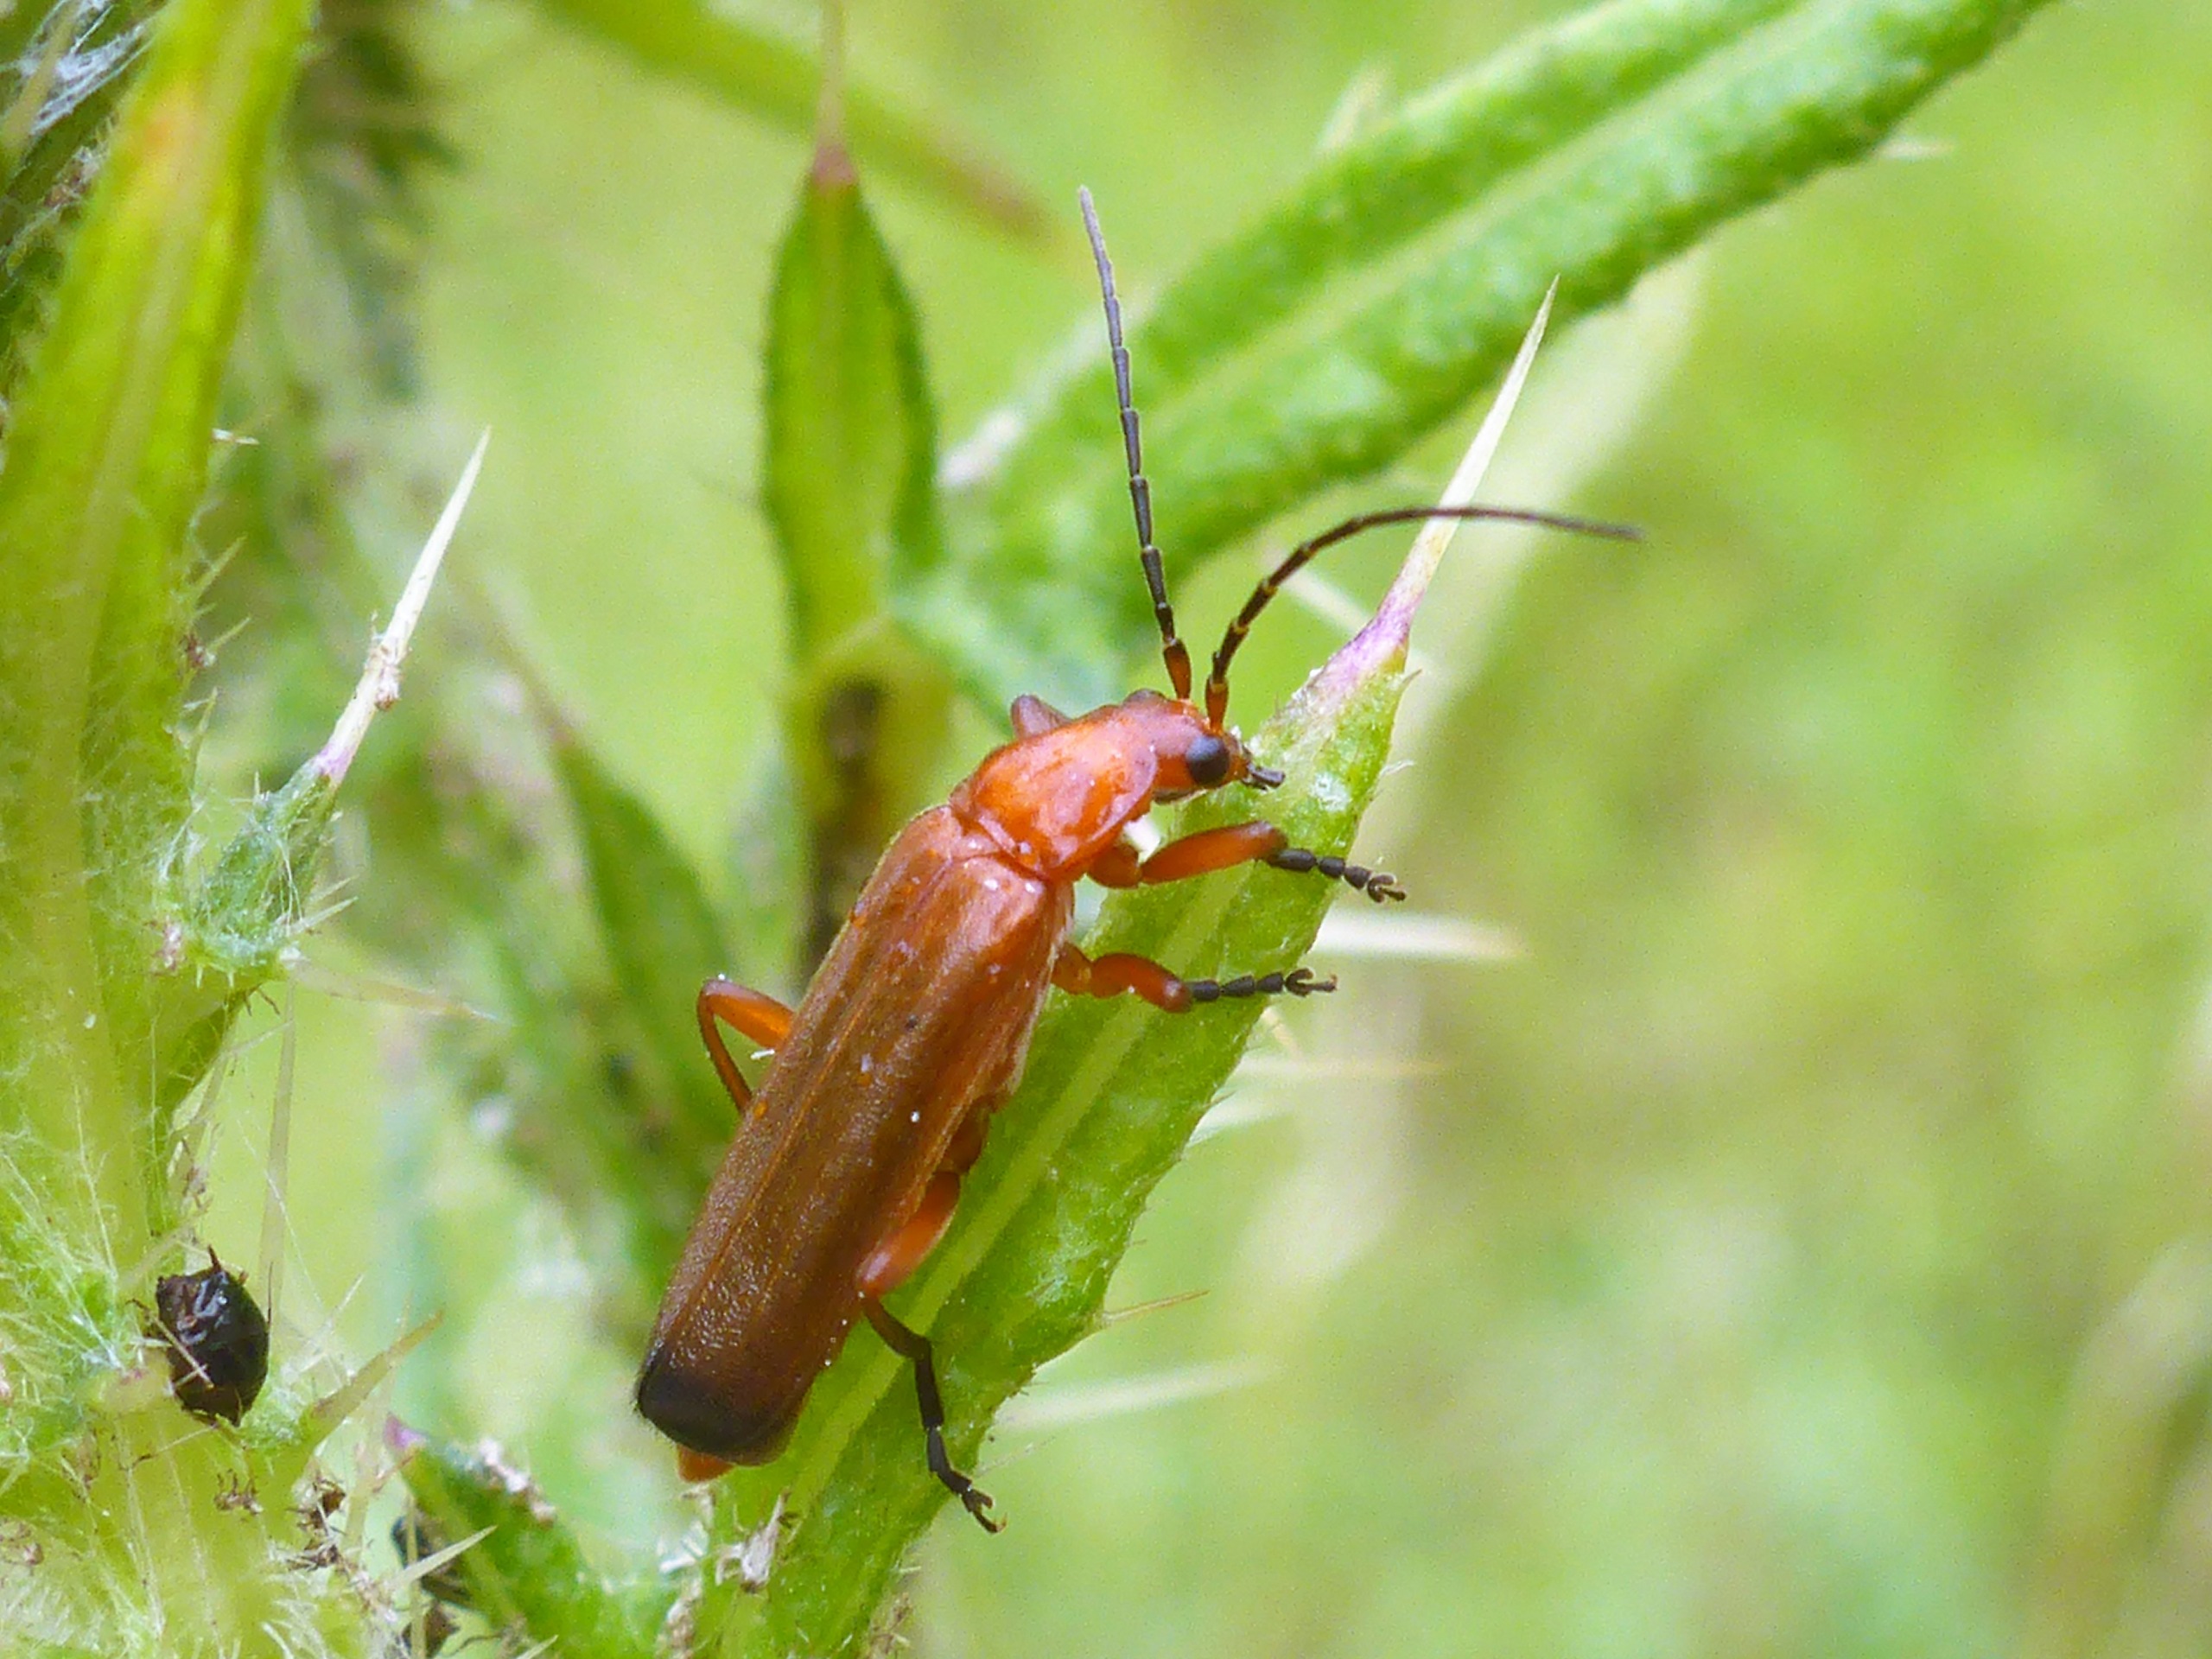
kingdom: Animalia
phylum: Arthropoda
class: Insecta
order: Coleoptera
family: Cantharidae
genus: Rhagonycha
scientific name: Rhagonycha fulva
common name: Præstebille
